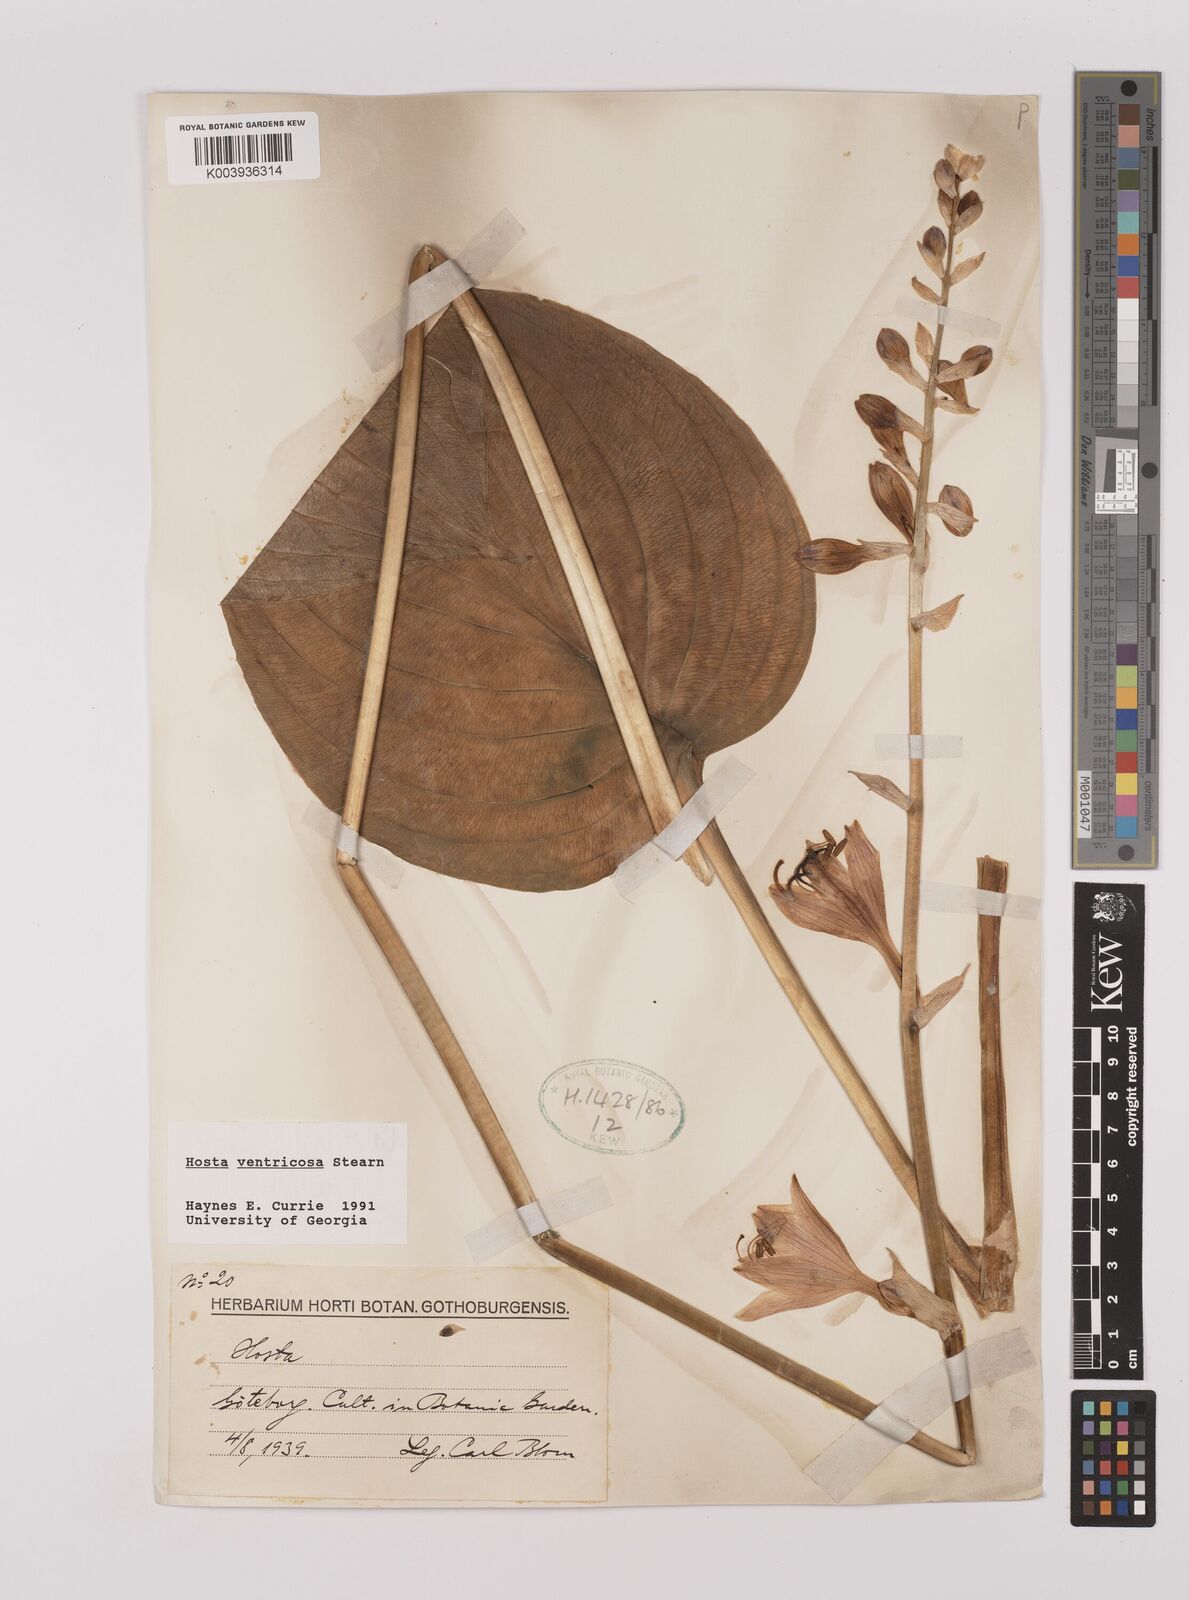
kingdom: Plantae
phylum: Tracheophyta
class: Liliopsida
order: Asparagales
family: Asparagaceae
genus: Hosta
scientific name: Hosta ventricosa
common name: Blue plantain-lily
